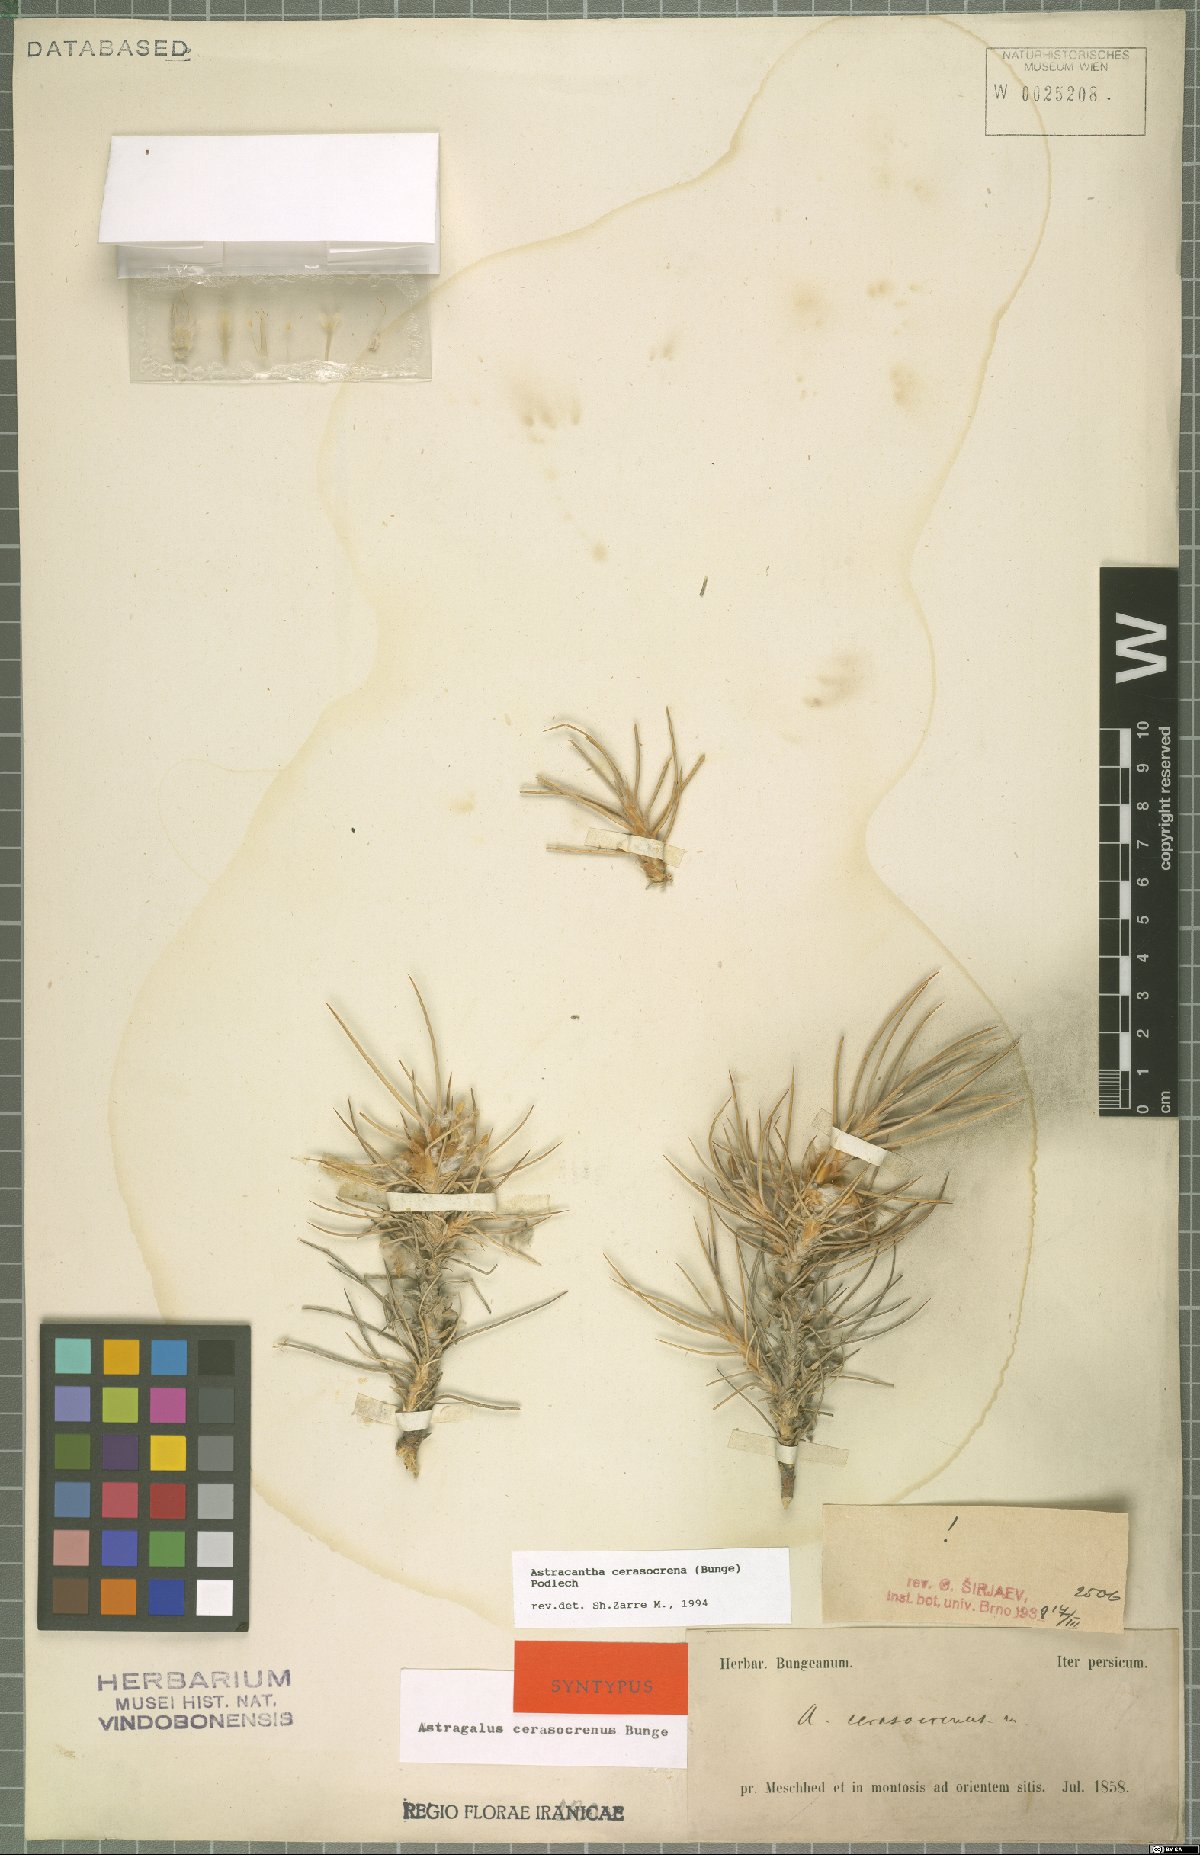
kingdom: Plantae
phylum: Tracheophyta
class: Magnoliopsida
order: Fabales
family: Fabaceae
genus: Astragalus
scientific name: Astragalus cerasocrenus
